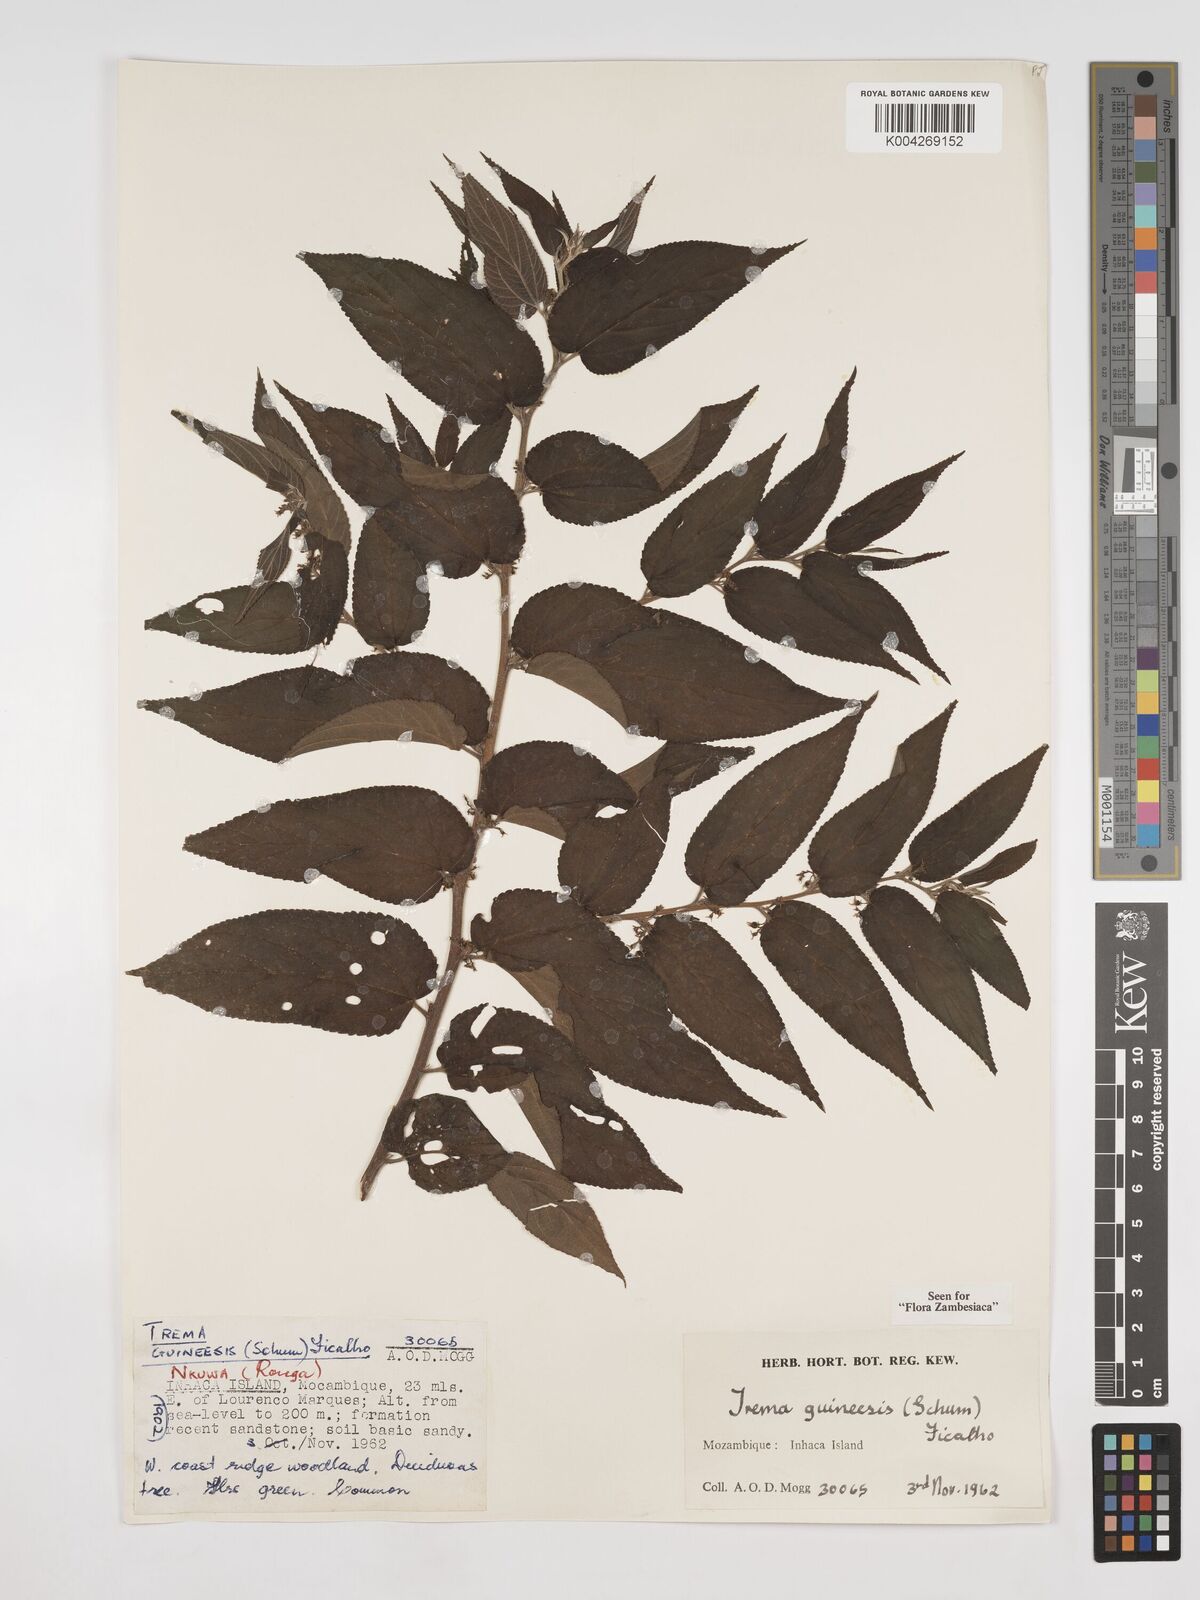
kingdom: Plantae
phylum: Tracheophyta
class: Magnoliopsida
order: Rosales
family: Cannabaceae
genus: Trema
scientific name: Trema orientale
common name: Indian charcoal tree
